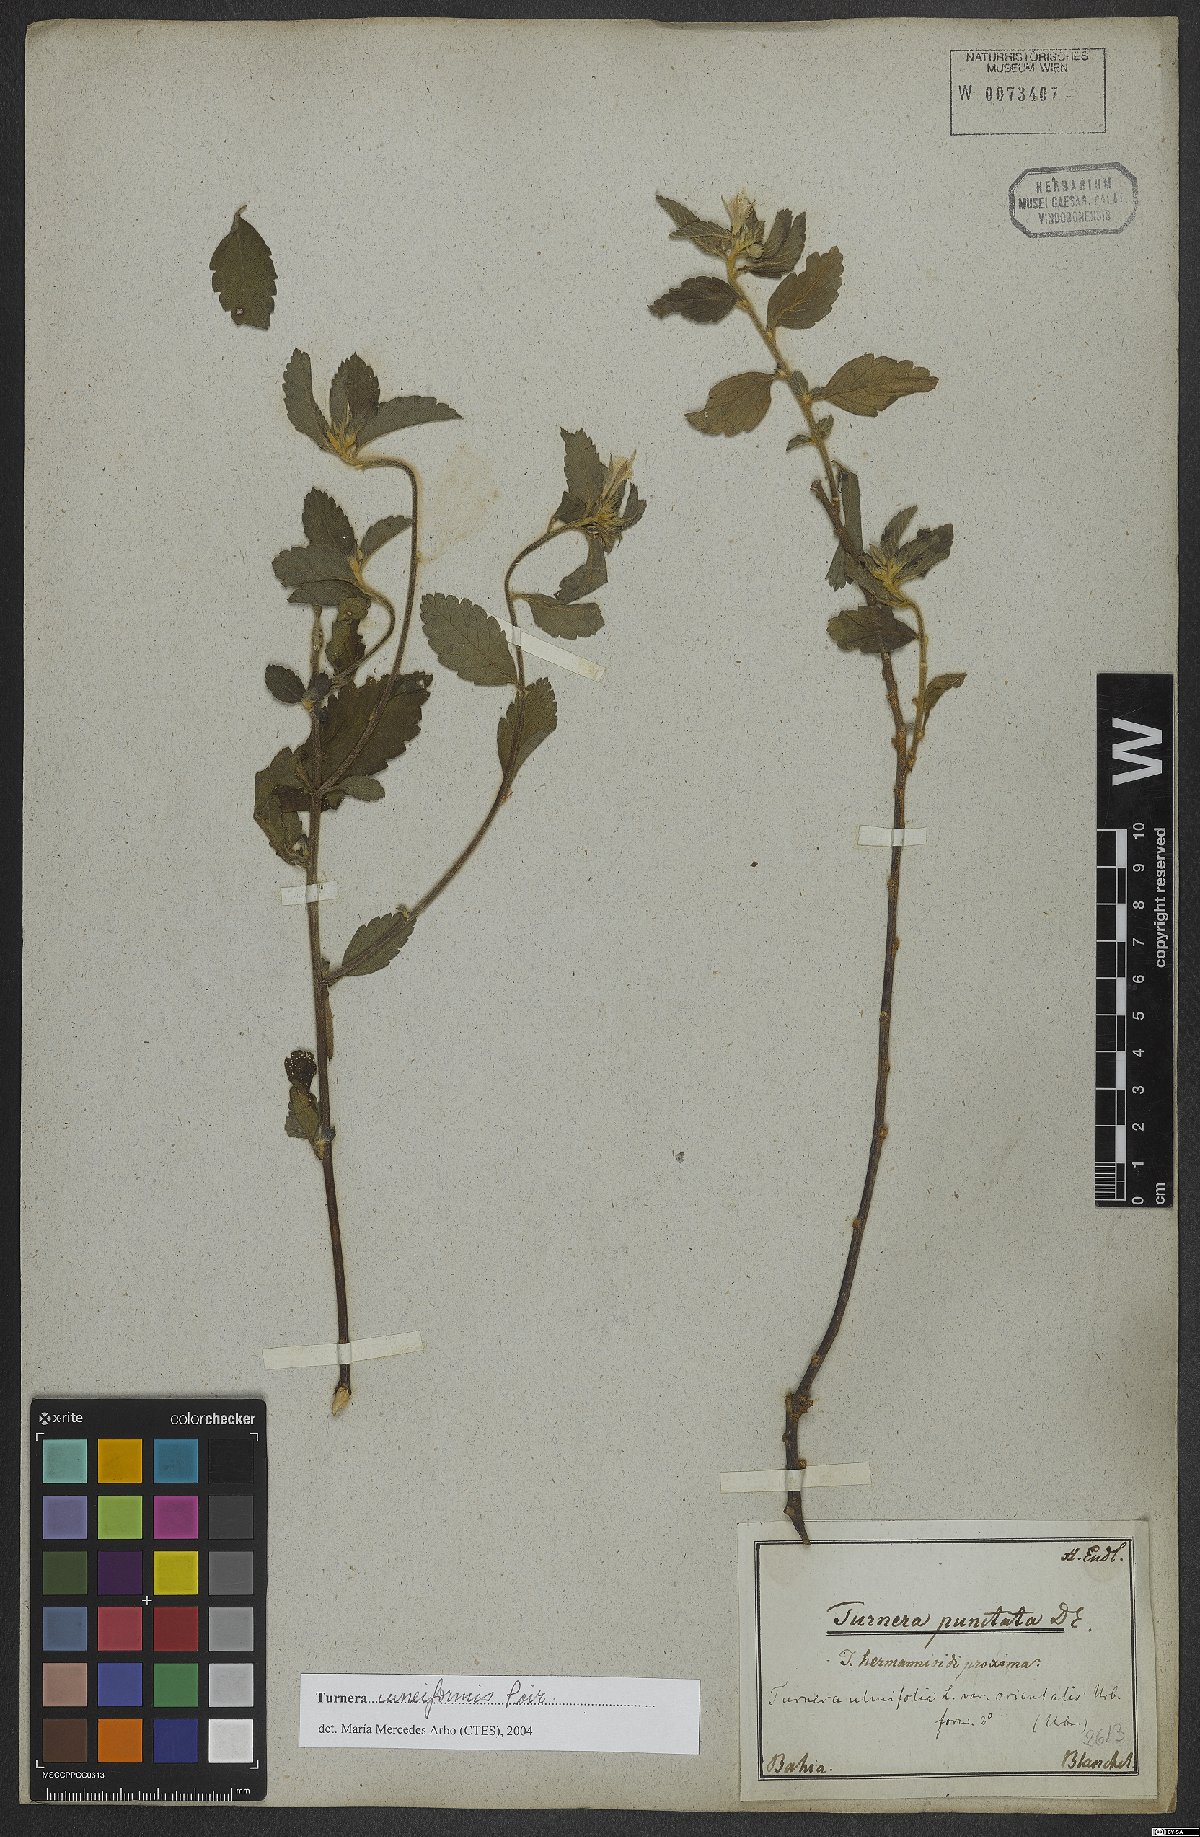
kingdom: Plantae
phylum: Tracheophyta
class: Magnoliopsida
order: Malpighiales
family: Turneraceae
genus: Turnera
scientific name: Turnera cuneiformis
